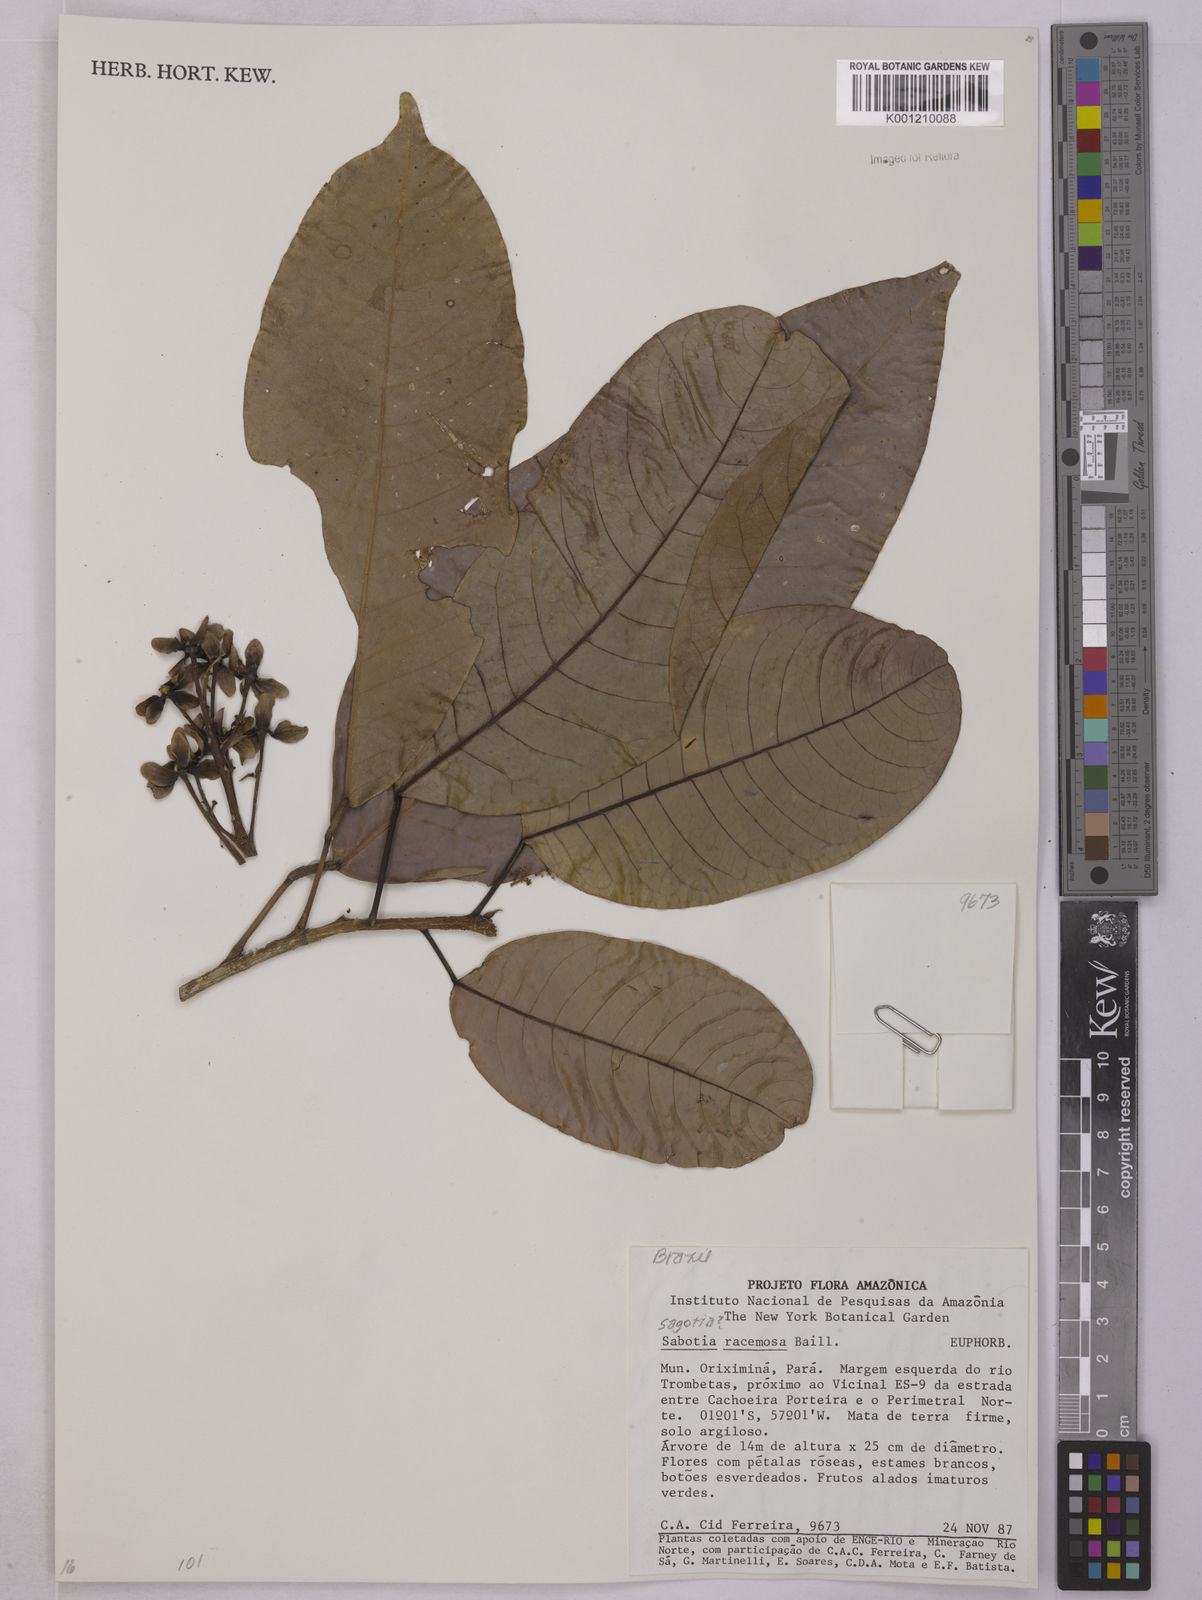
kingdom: Plantae
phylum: Tracheophyta
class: Magnoliopsida
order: Malpighiales
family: Euphorbiaceae
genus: Sagotia
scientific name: Sagotia racemosa
